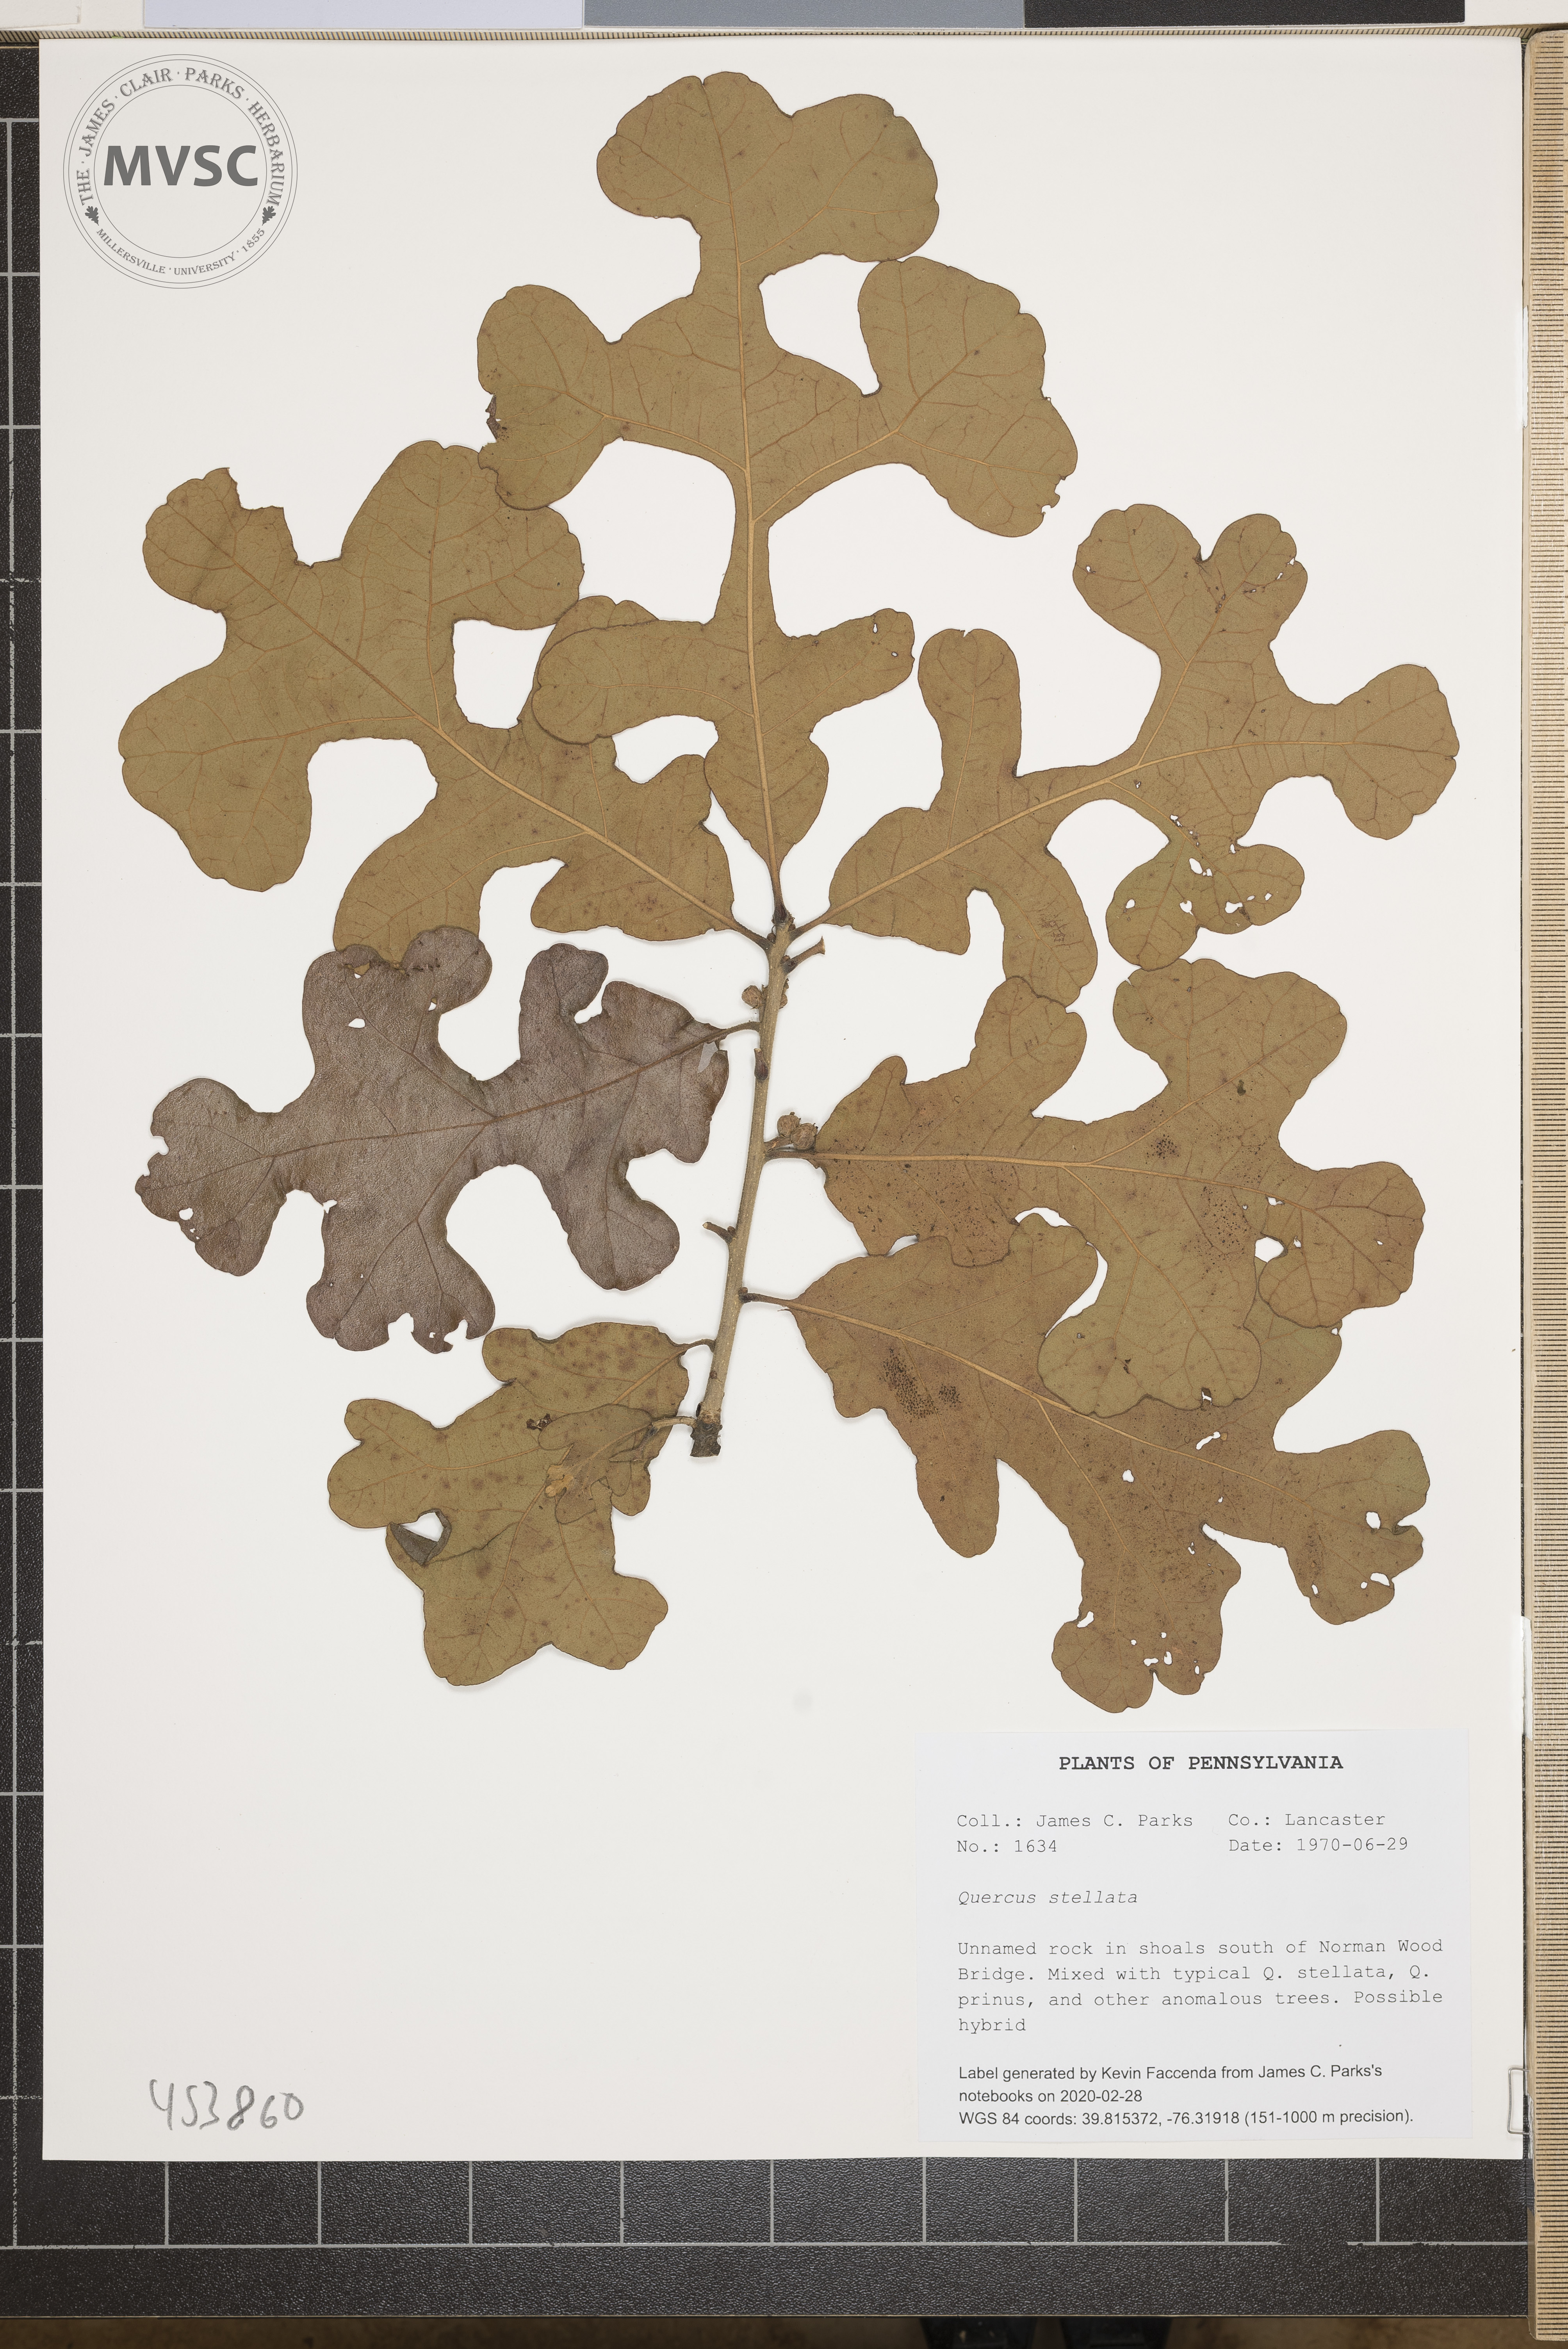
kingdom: Plantae
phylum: Tracheophyta
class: Magnoliopsida
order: Fagales
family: Fagaceae
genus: Quercus
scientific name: Quercus stellata
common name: Post oak
